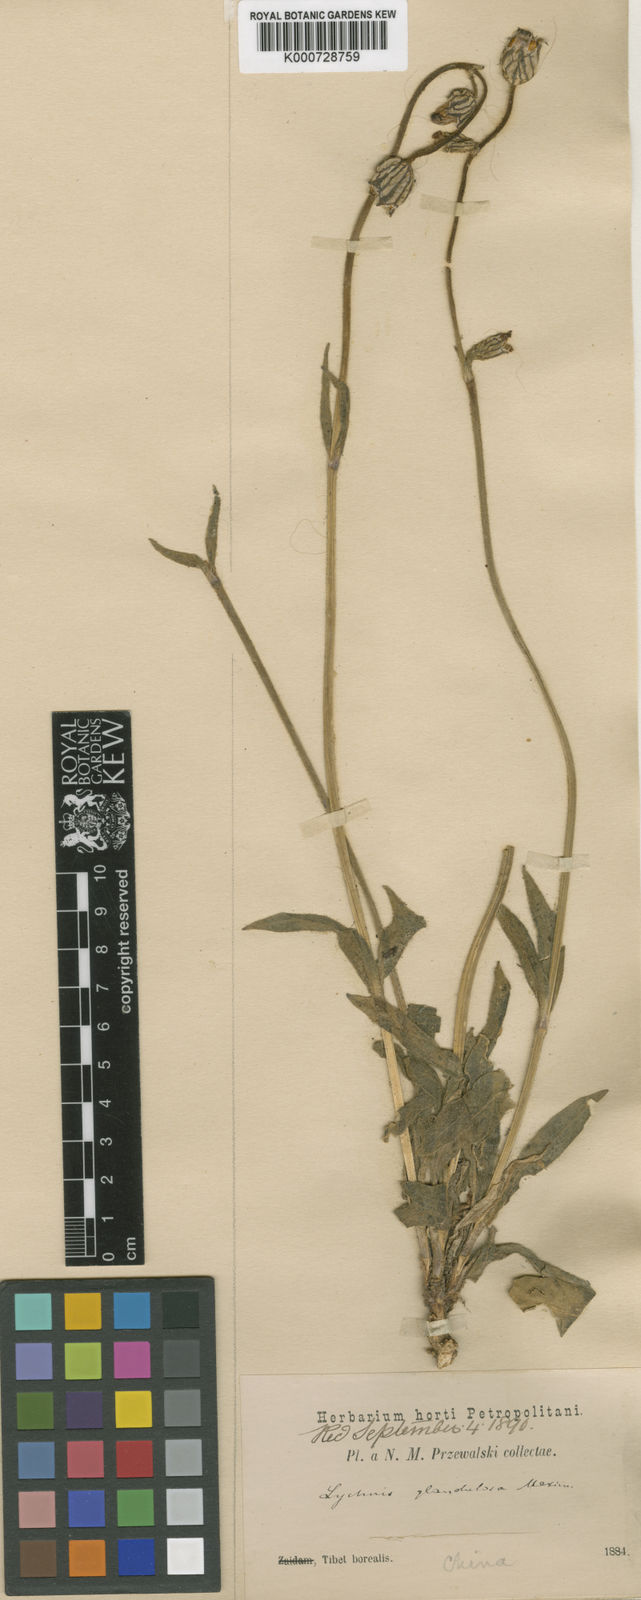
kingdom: Plantae
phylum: Tracheophyta
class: Magnoliopsida
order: Caryophyllales
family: Caryophyllaceae
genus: Silene
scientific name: Silene
